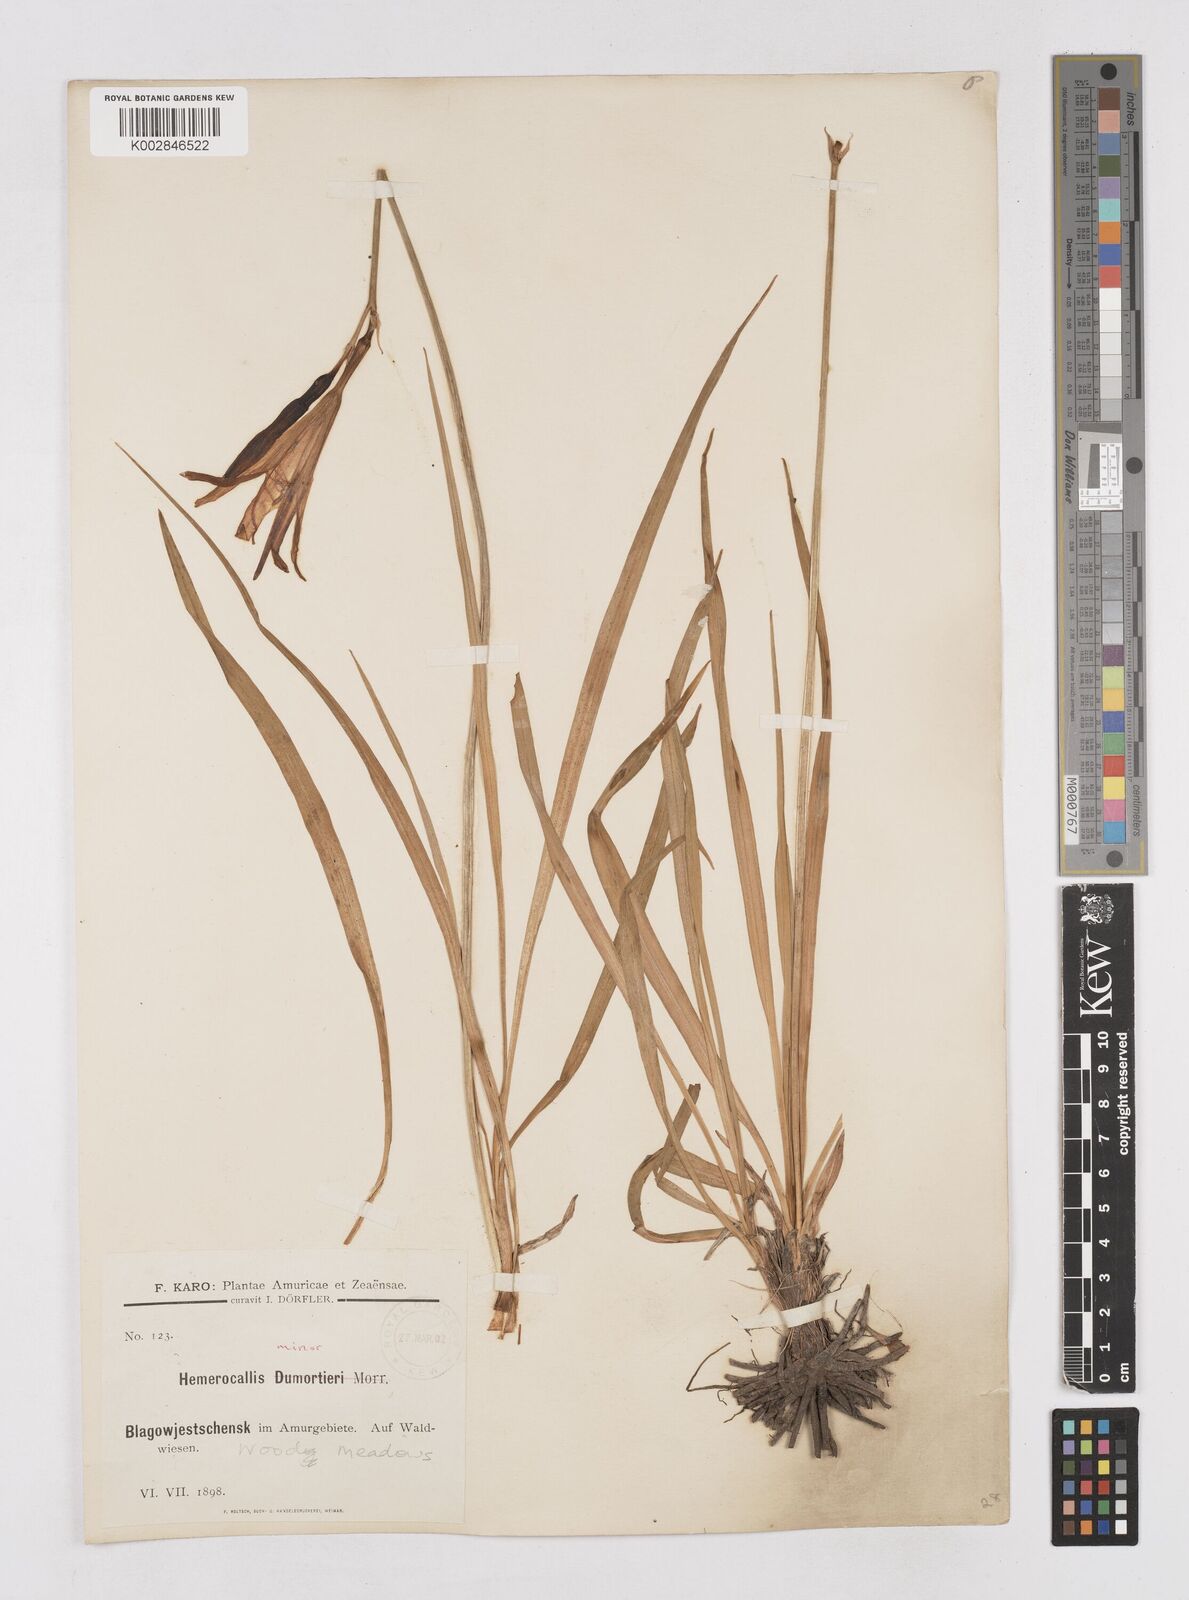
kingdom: Plantae
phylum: Tracheophyta
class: Liliopsida
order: Asparagales
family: Asphodelaceae
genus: Hemerocallis
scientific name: Hemerocallis minor
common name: Small daylily
